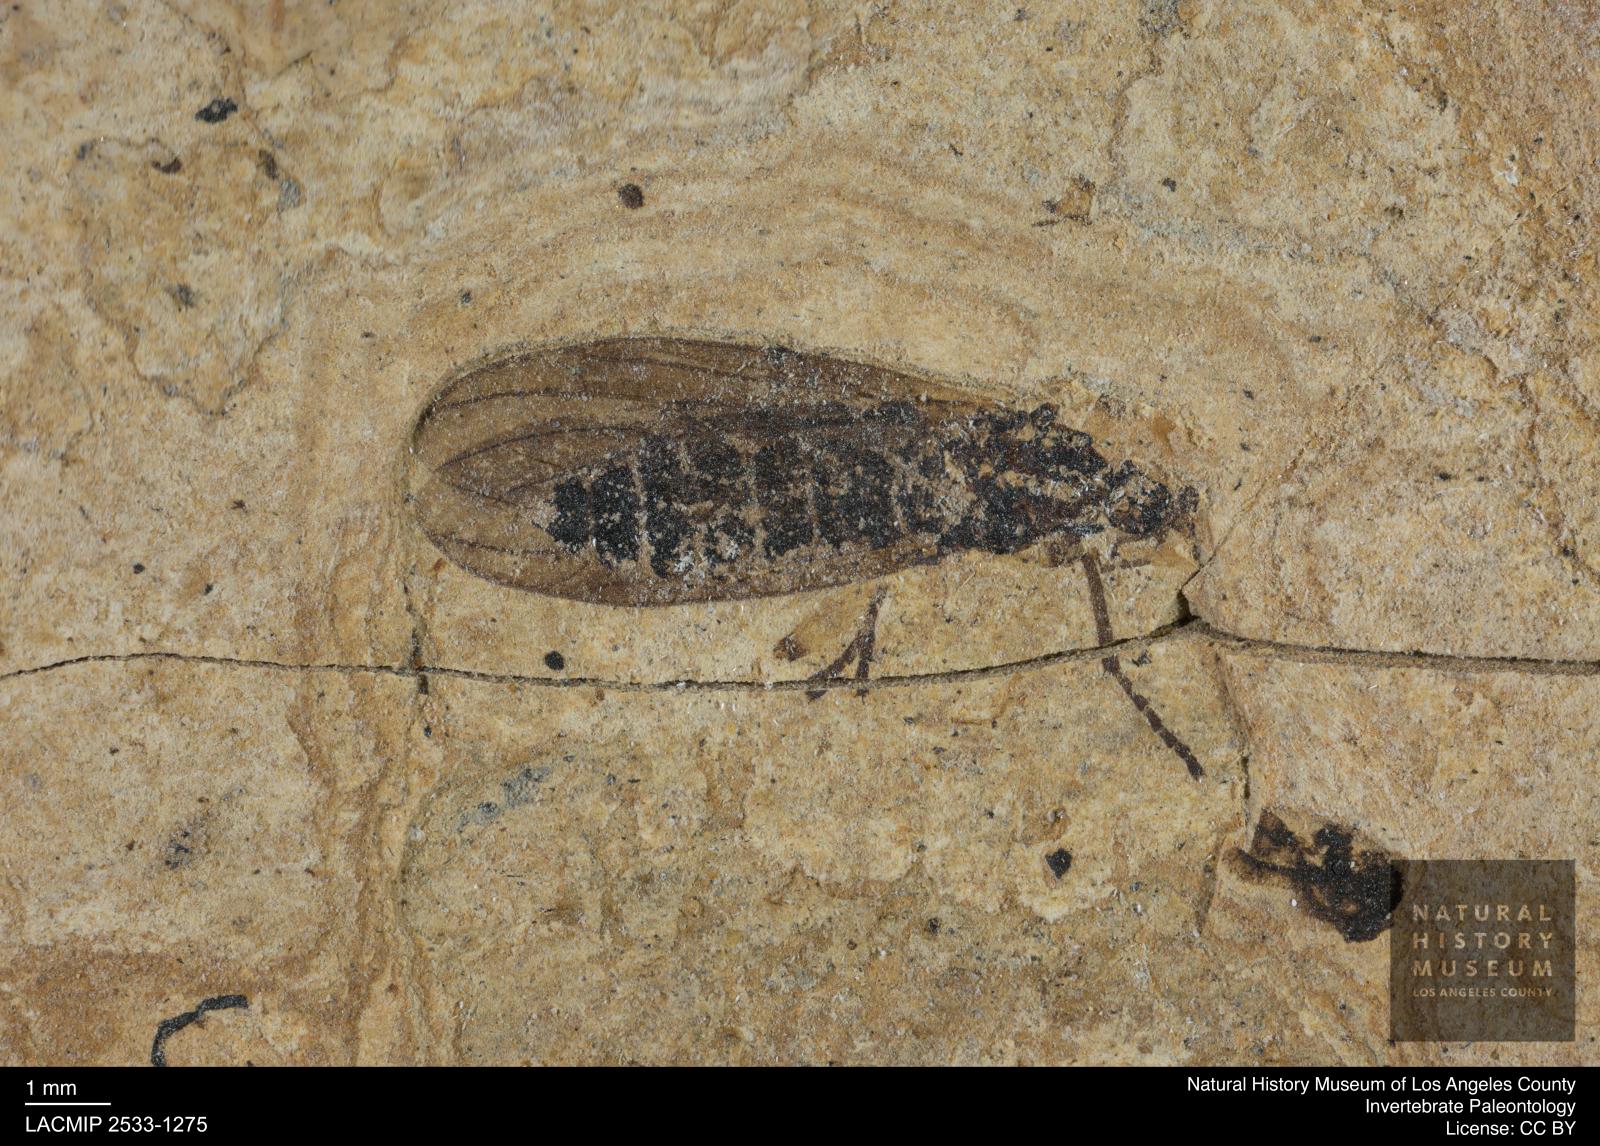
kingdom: Animalia
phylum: Arthropoda
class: Insecta
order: Diptera
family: Bibionidae
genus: Plecia
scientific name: Plecia hypogaea
